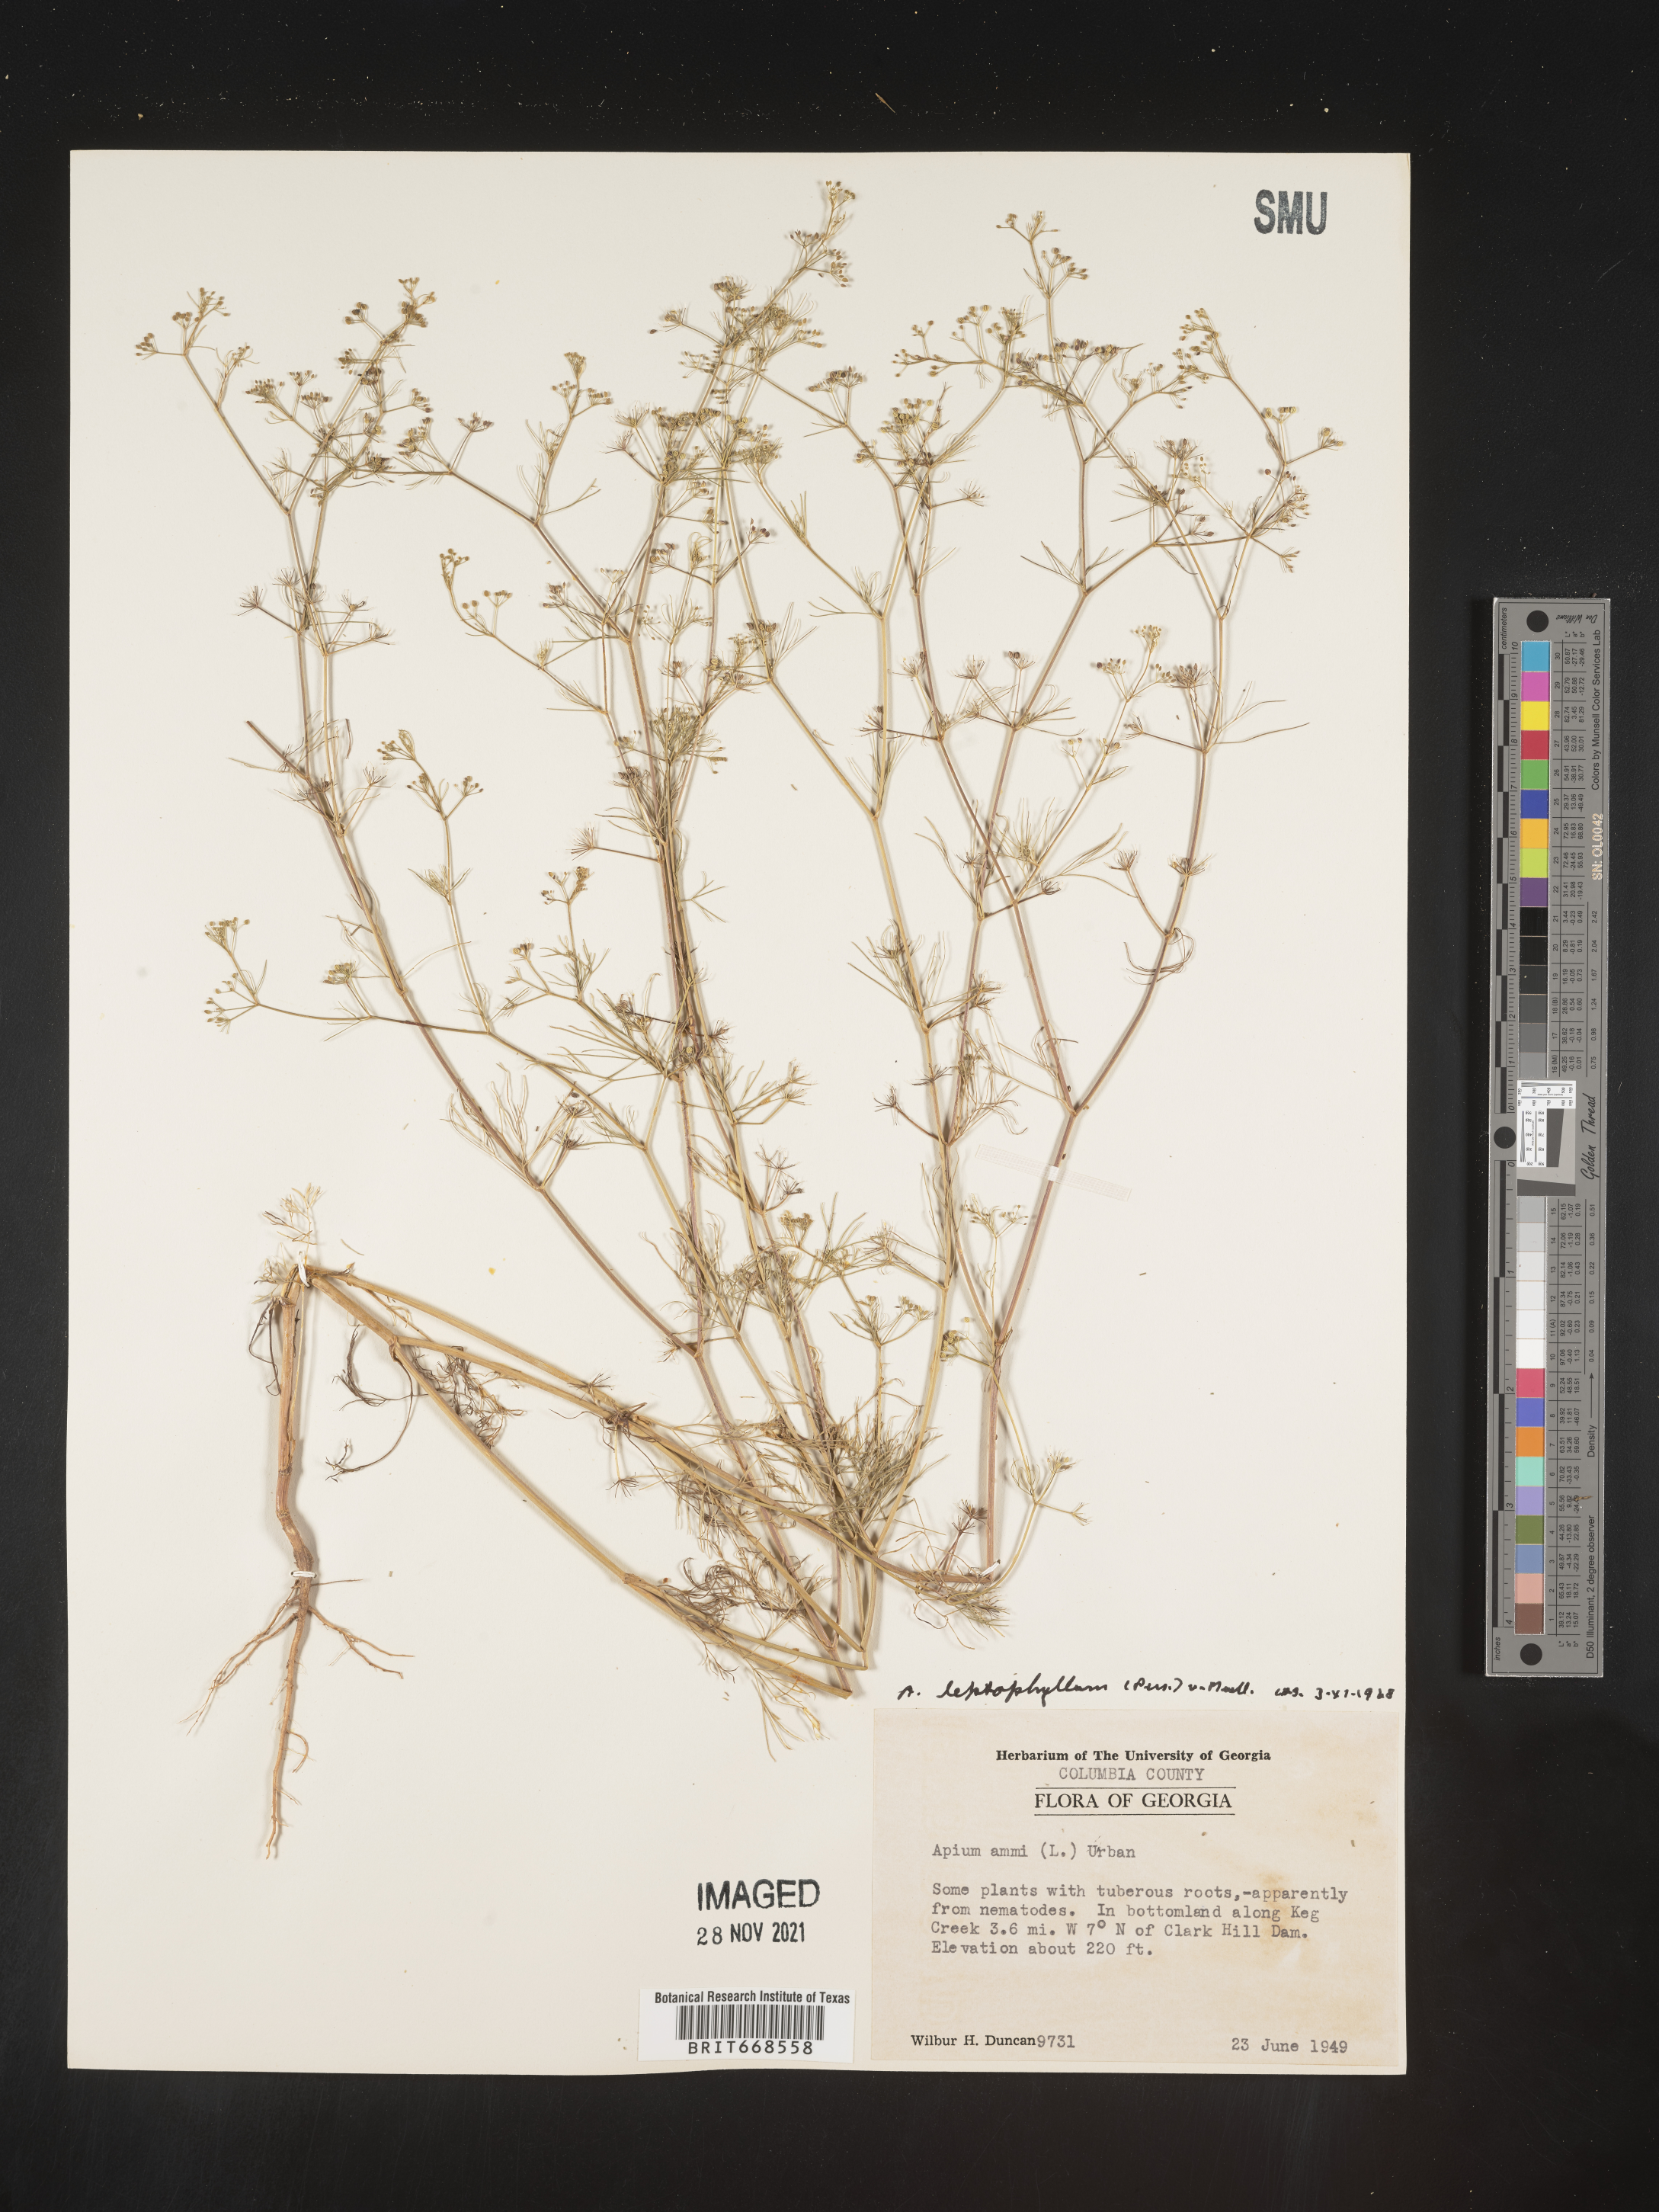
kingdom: Plantae
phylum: Tracheophyta
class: Magnoliopsida
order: Apiales
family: Apiaceae
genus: Cyclospermum
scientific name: Cyclospermum leptophyllum
